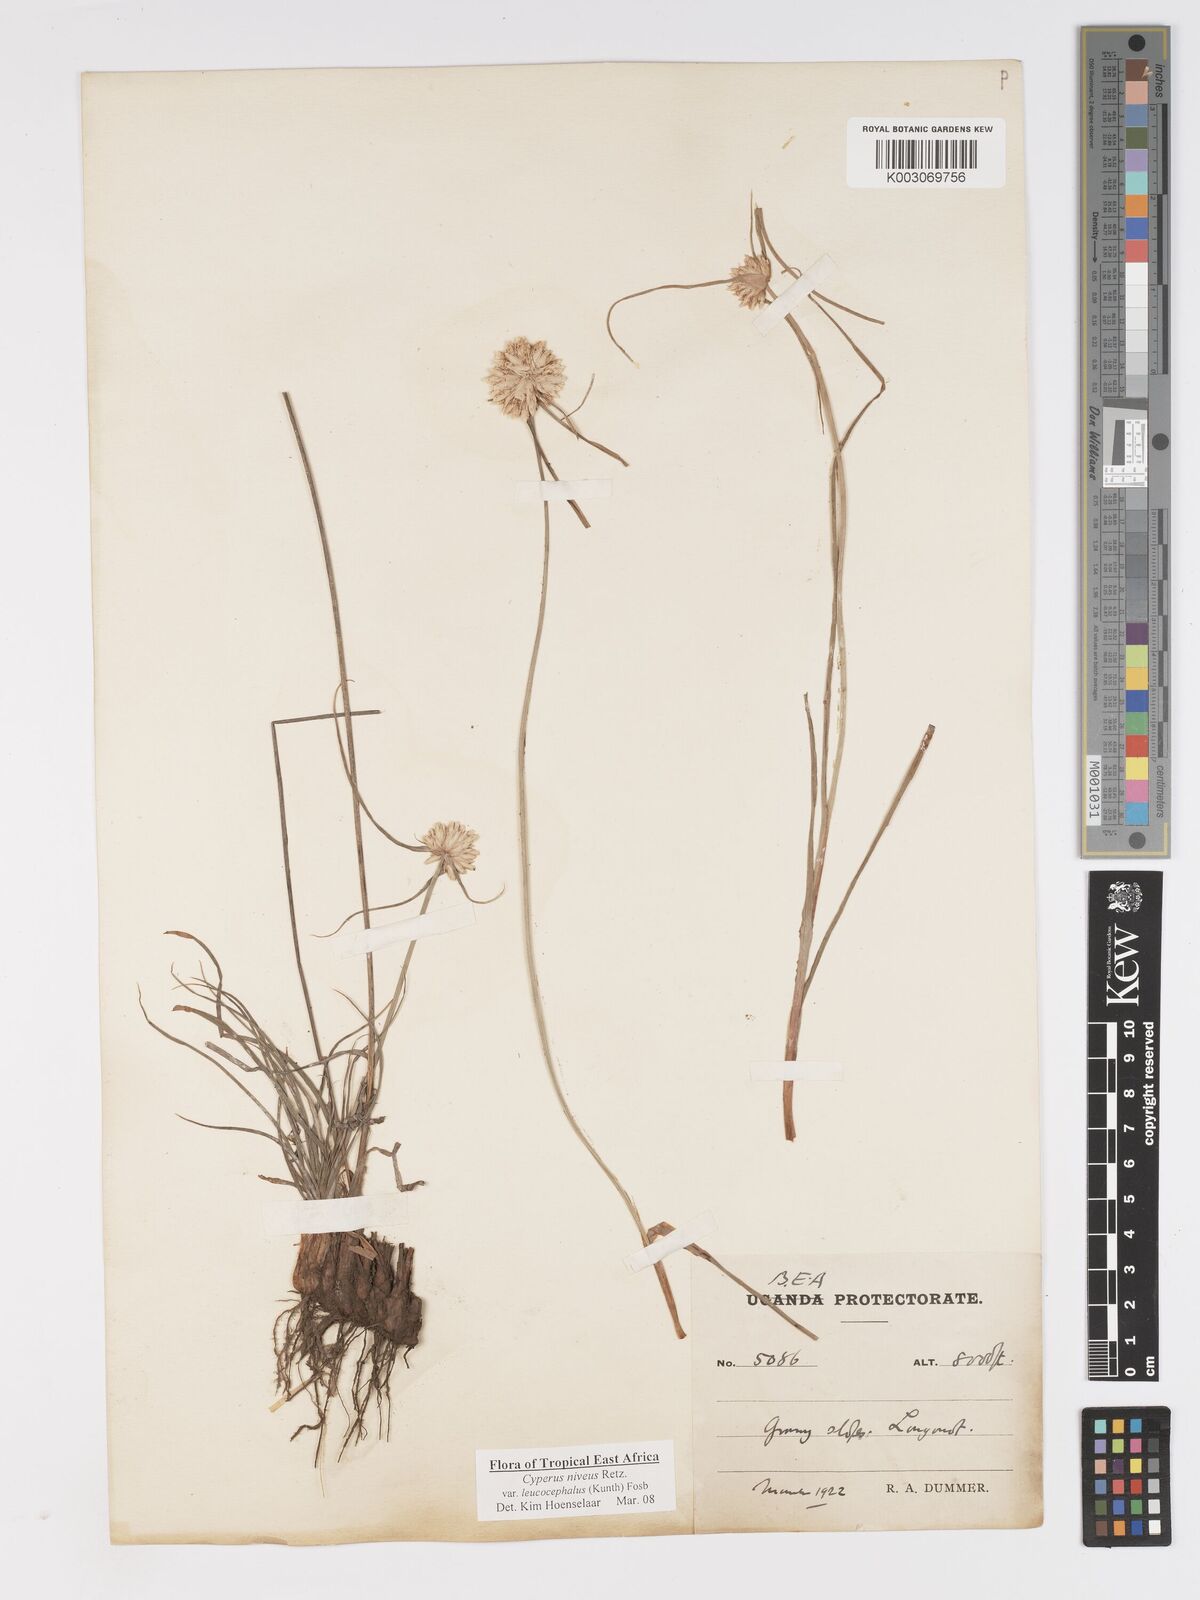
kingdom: Plantae
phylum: Tracheophyta
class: Liliopsida
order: Poales
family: Cyperaceae
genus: Cyperus
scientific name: Cyperus niveus
